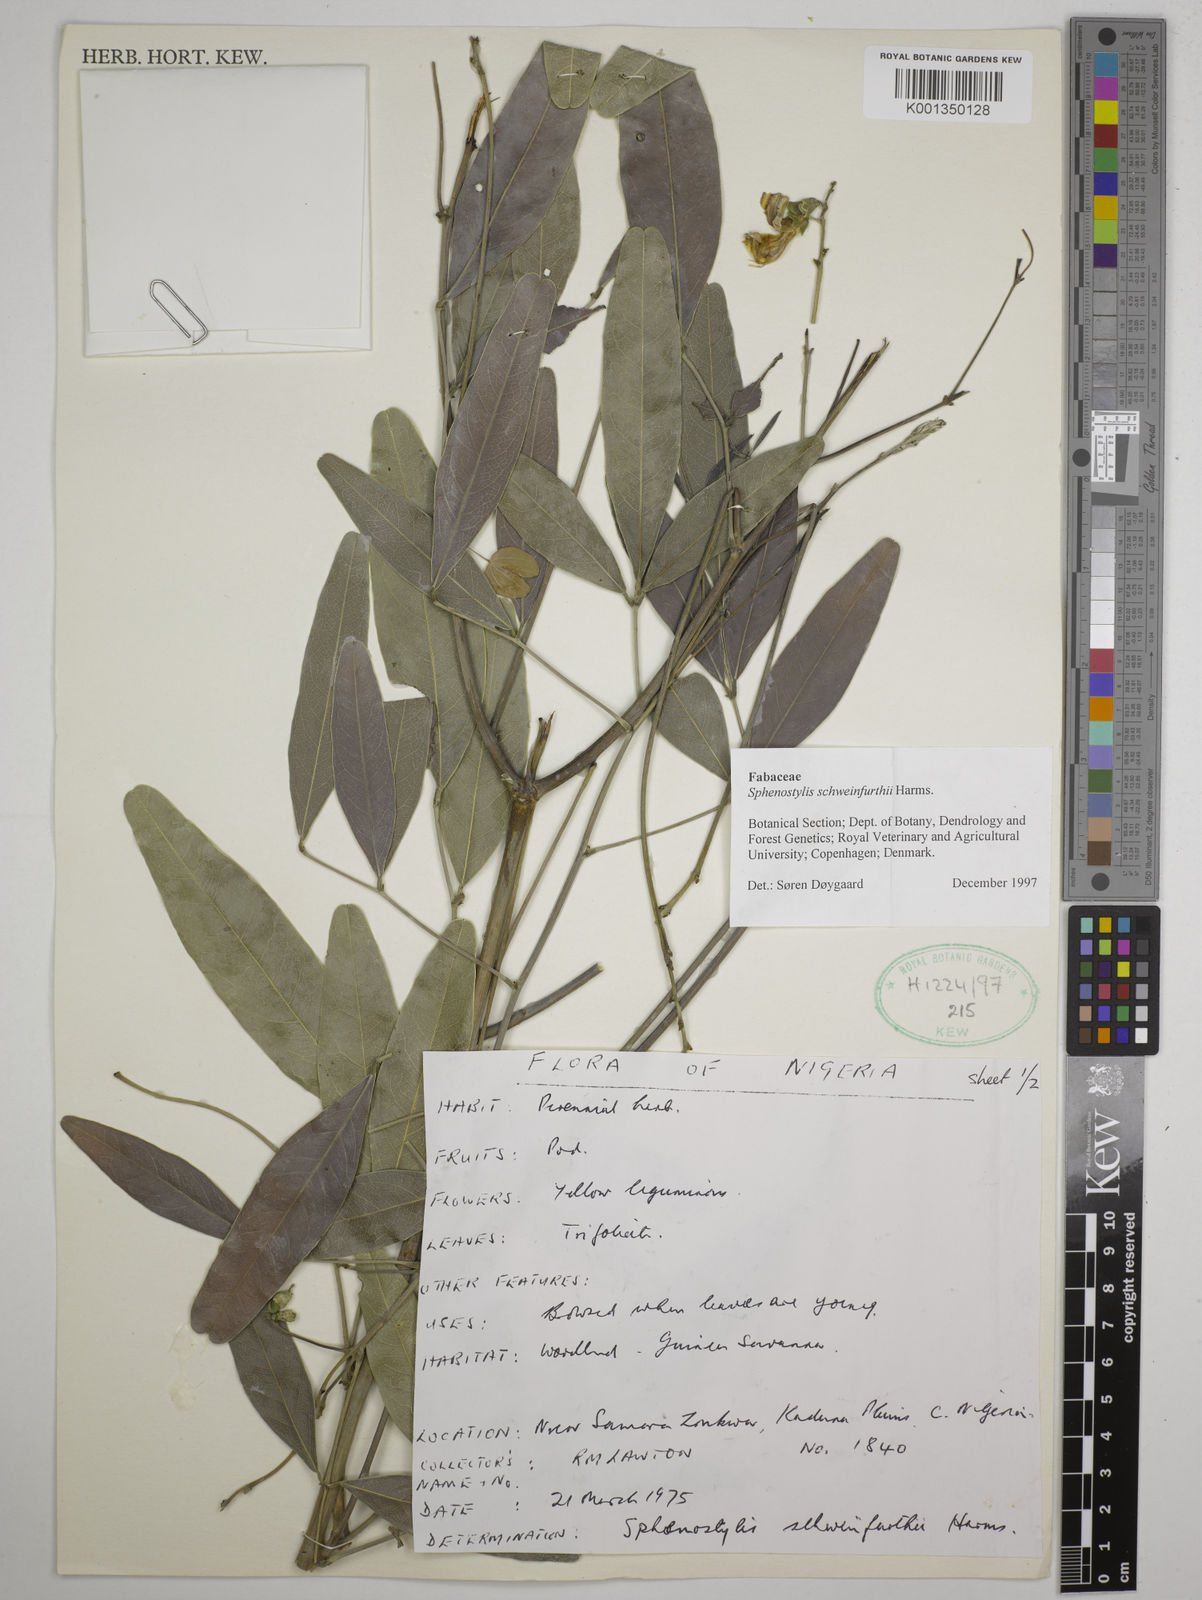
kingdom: Plantae
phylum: Tracheophyta
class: Magnoliopsida
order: Fabales
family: Fabaceae
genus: Sphenostylis
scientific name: Sphenostylis schweinfurthii
